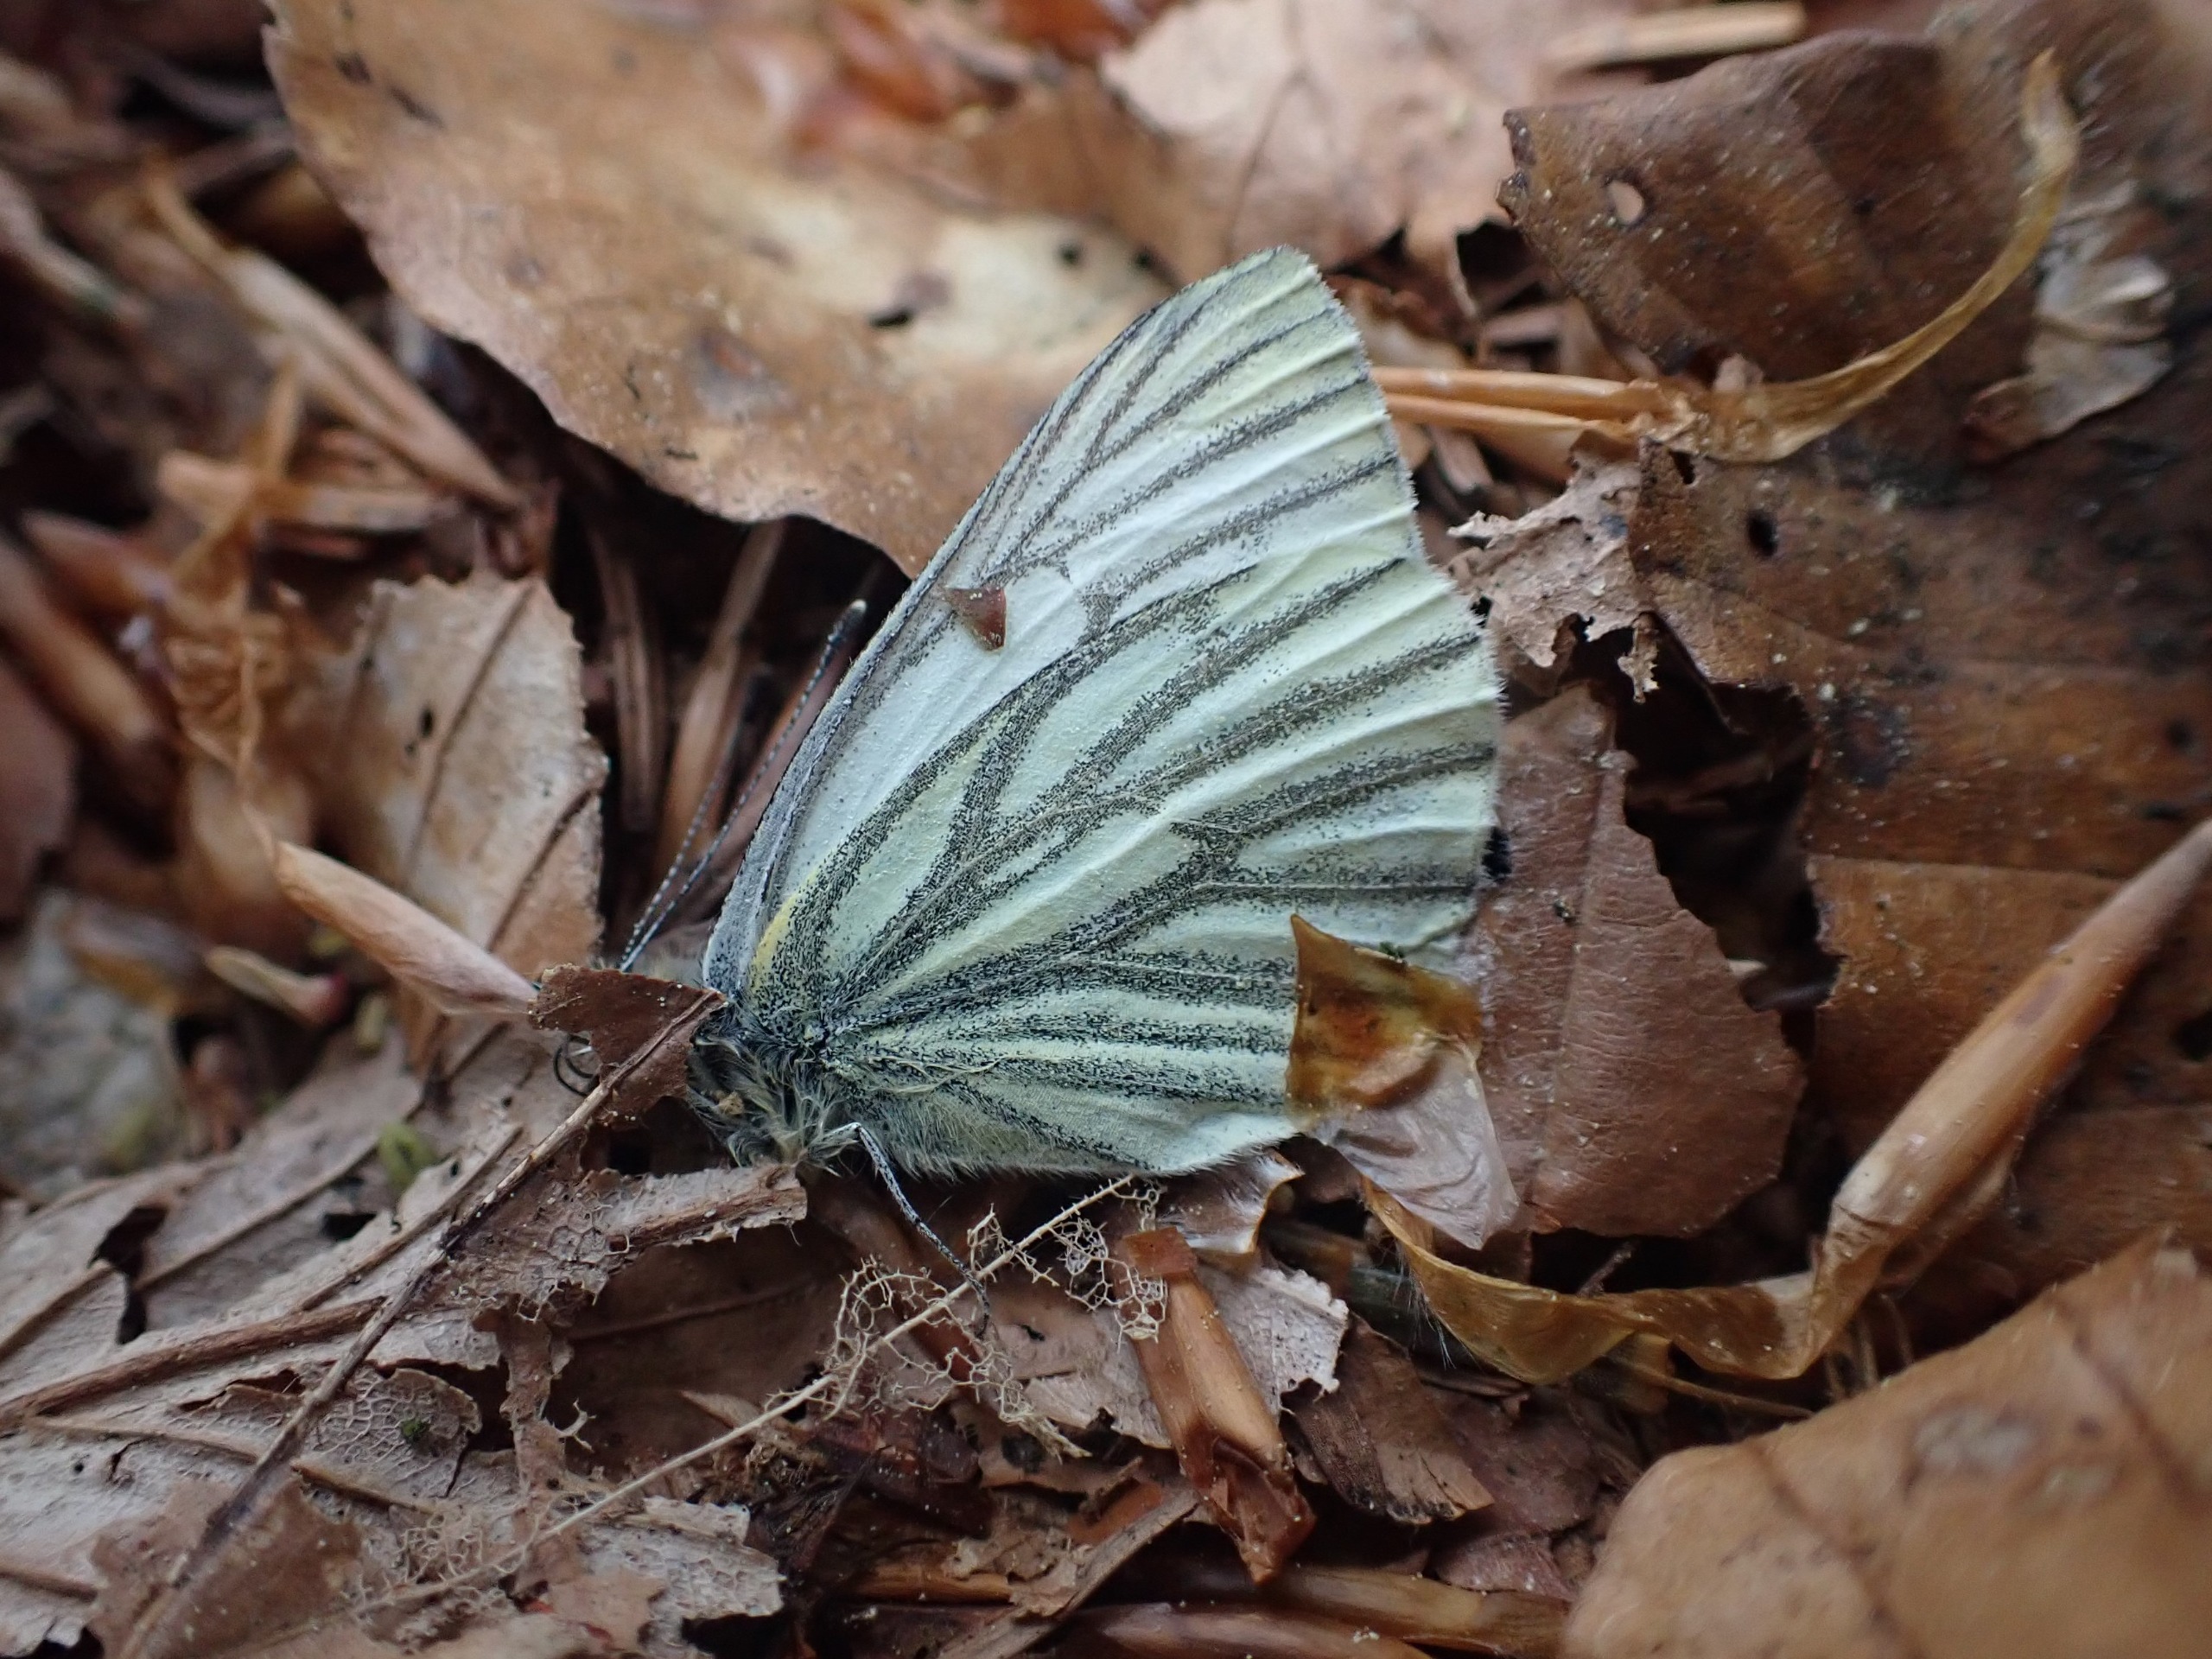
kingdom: Animalia
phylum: Arthropoda
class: Insecta
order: Lepidoptera
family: Pieridae
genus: Pieris
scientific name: Pieris napi
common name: Grønåret kålsommerfugl
